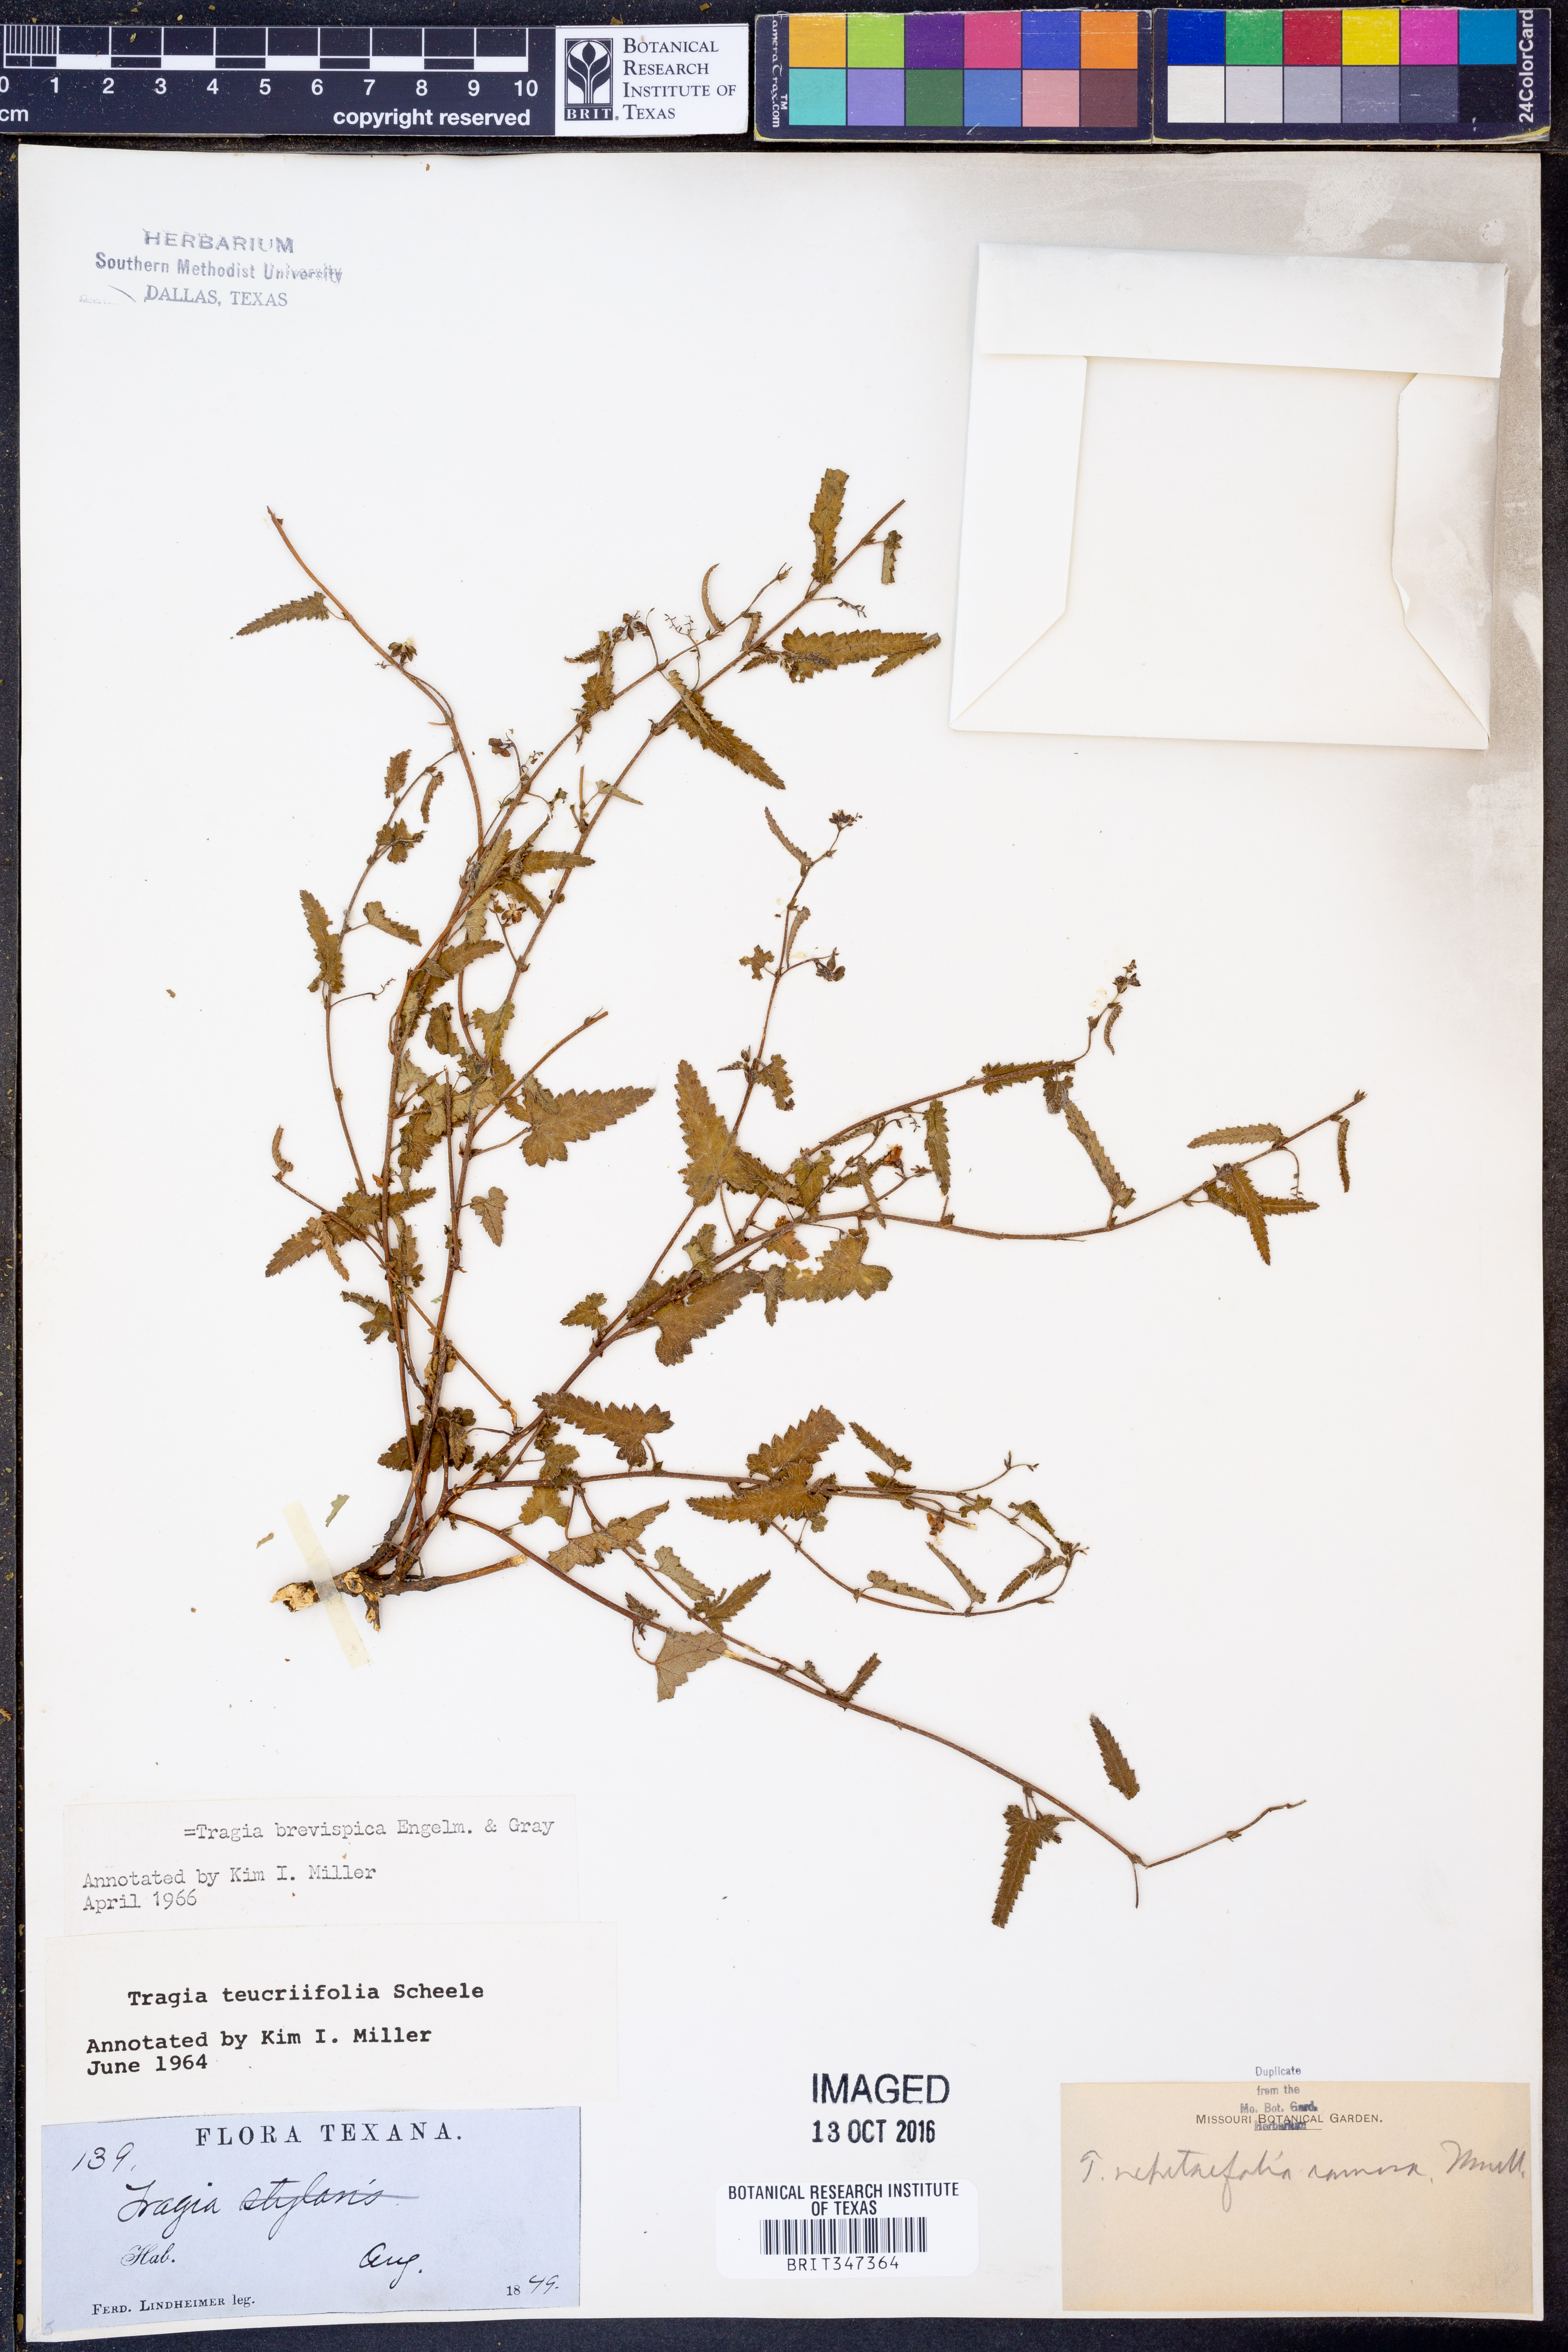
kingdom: Plantae
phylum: Tracheophyta
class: Magnoliopsida
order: Malpighiales
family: Euphorbiaceae
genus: Tragia
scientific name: Tragia brevispica
